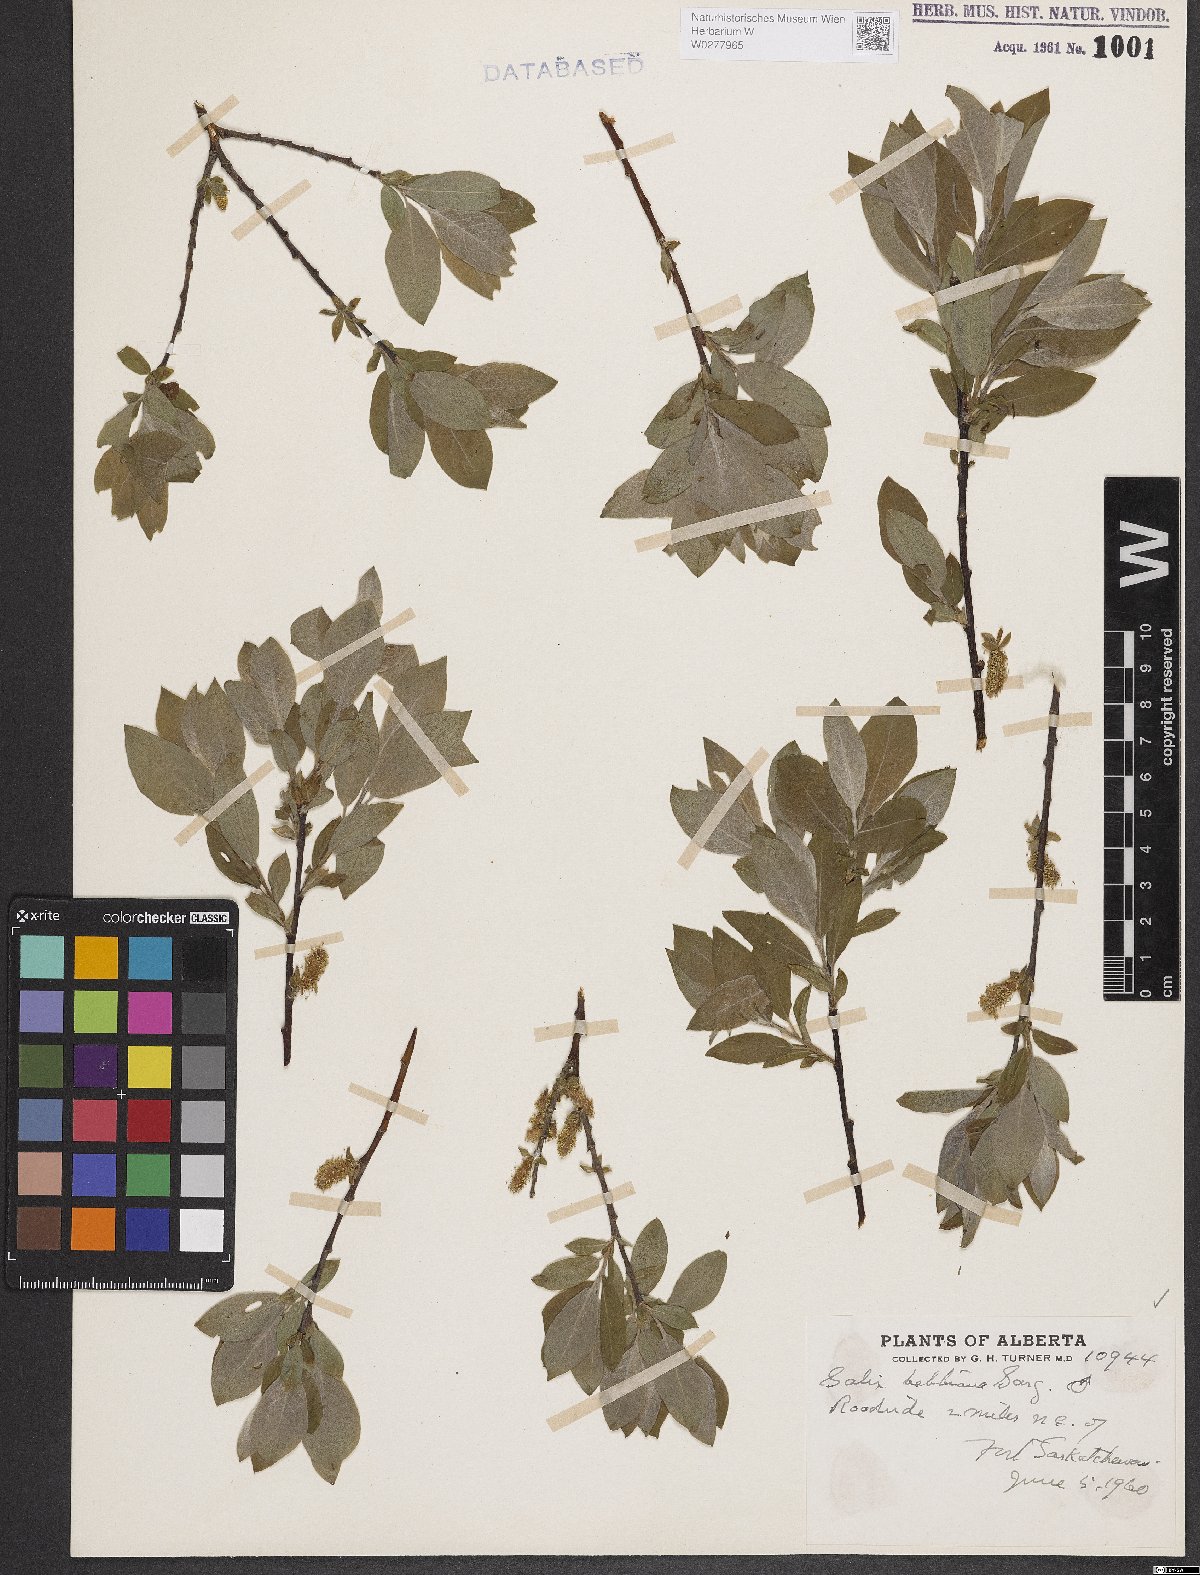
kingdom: Plantae
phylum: Tracheophyta
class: Magnoliopsida
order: Malpighiales
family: Salicaceae
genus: Salix
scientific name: Salix bebbiana
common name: Bebb's willow
